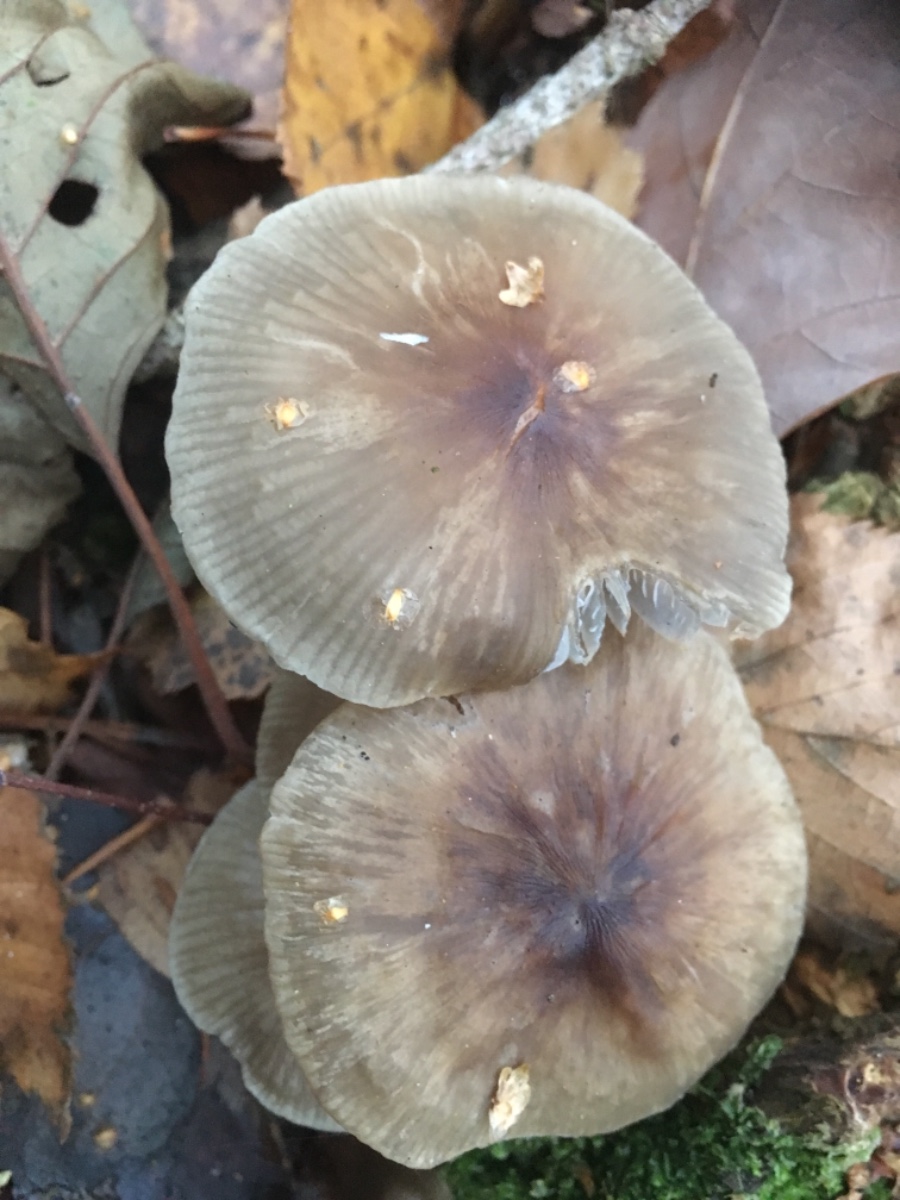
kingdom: Fungi
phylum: Basidiomycota
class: Agaricomycetes
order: Agaricales
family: Mycenaceae
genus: Mycena
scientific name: Mycena galericulata
